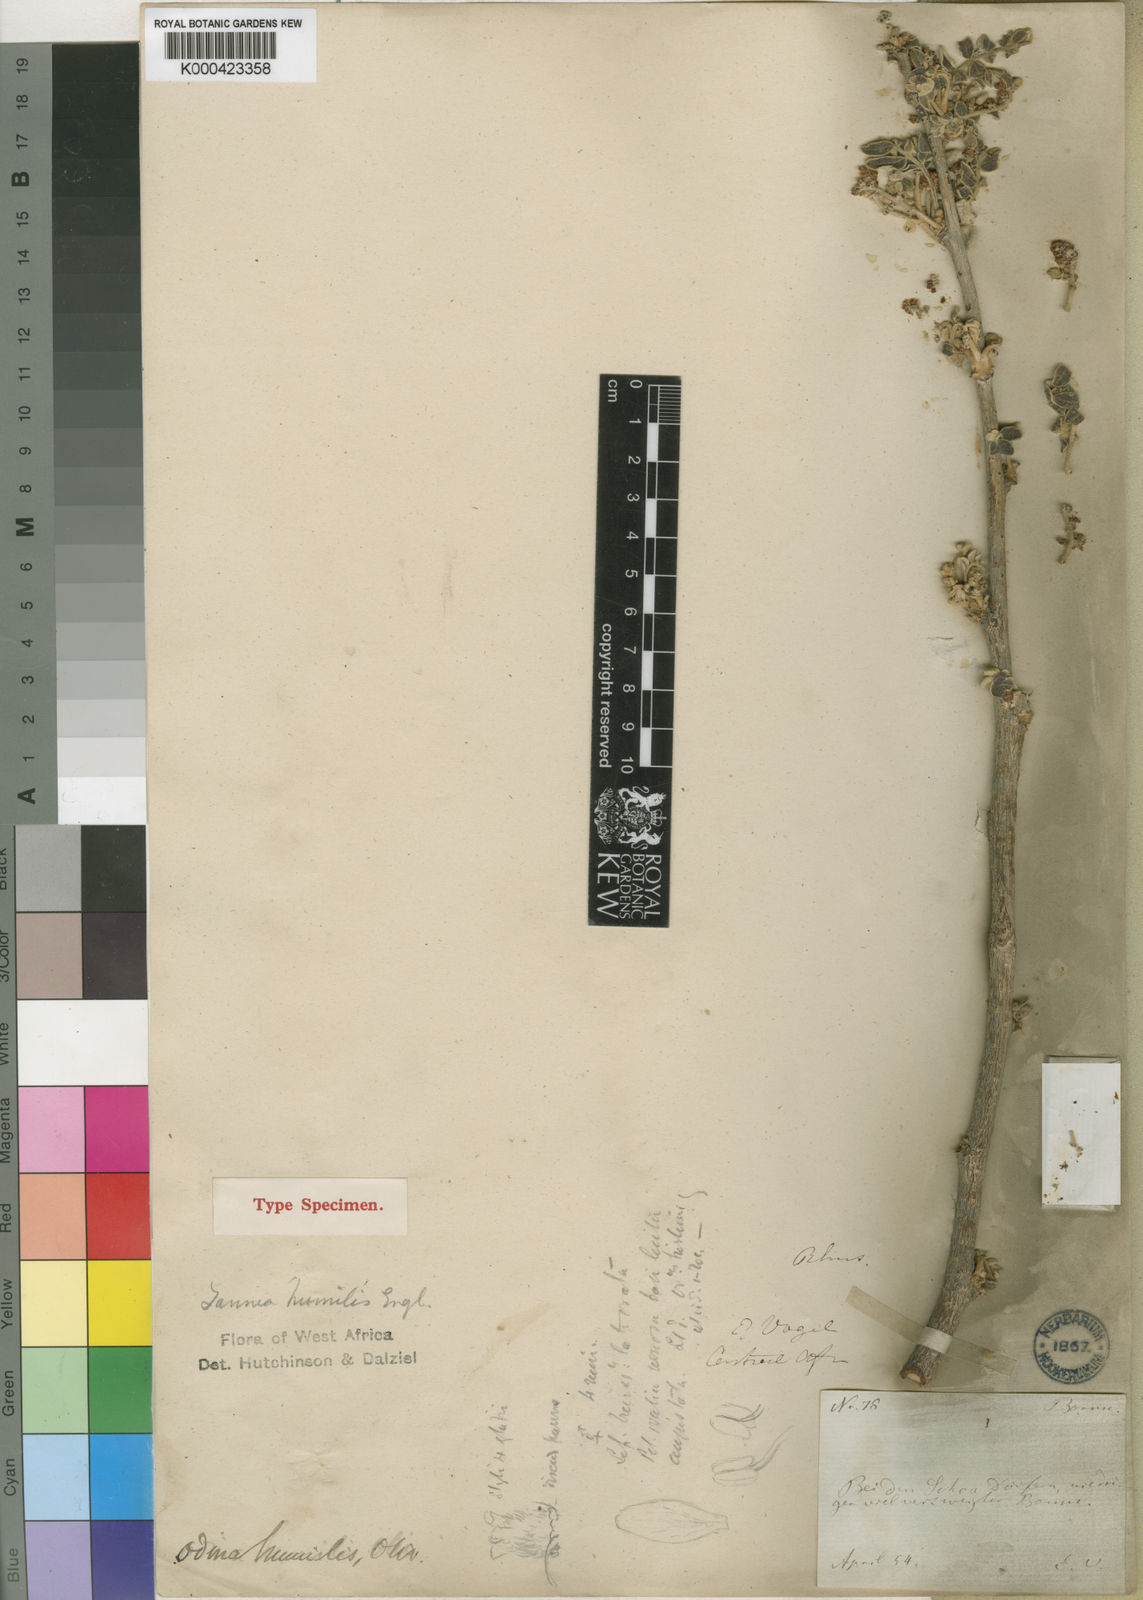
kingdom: Plantae
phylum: Tracheophyta
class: Magnoliopsida
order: Sapindales
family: Anacardiaceae
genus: Lannea
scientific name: Lannea humilis
